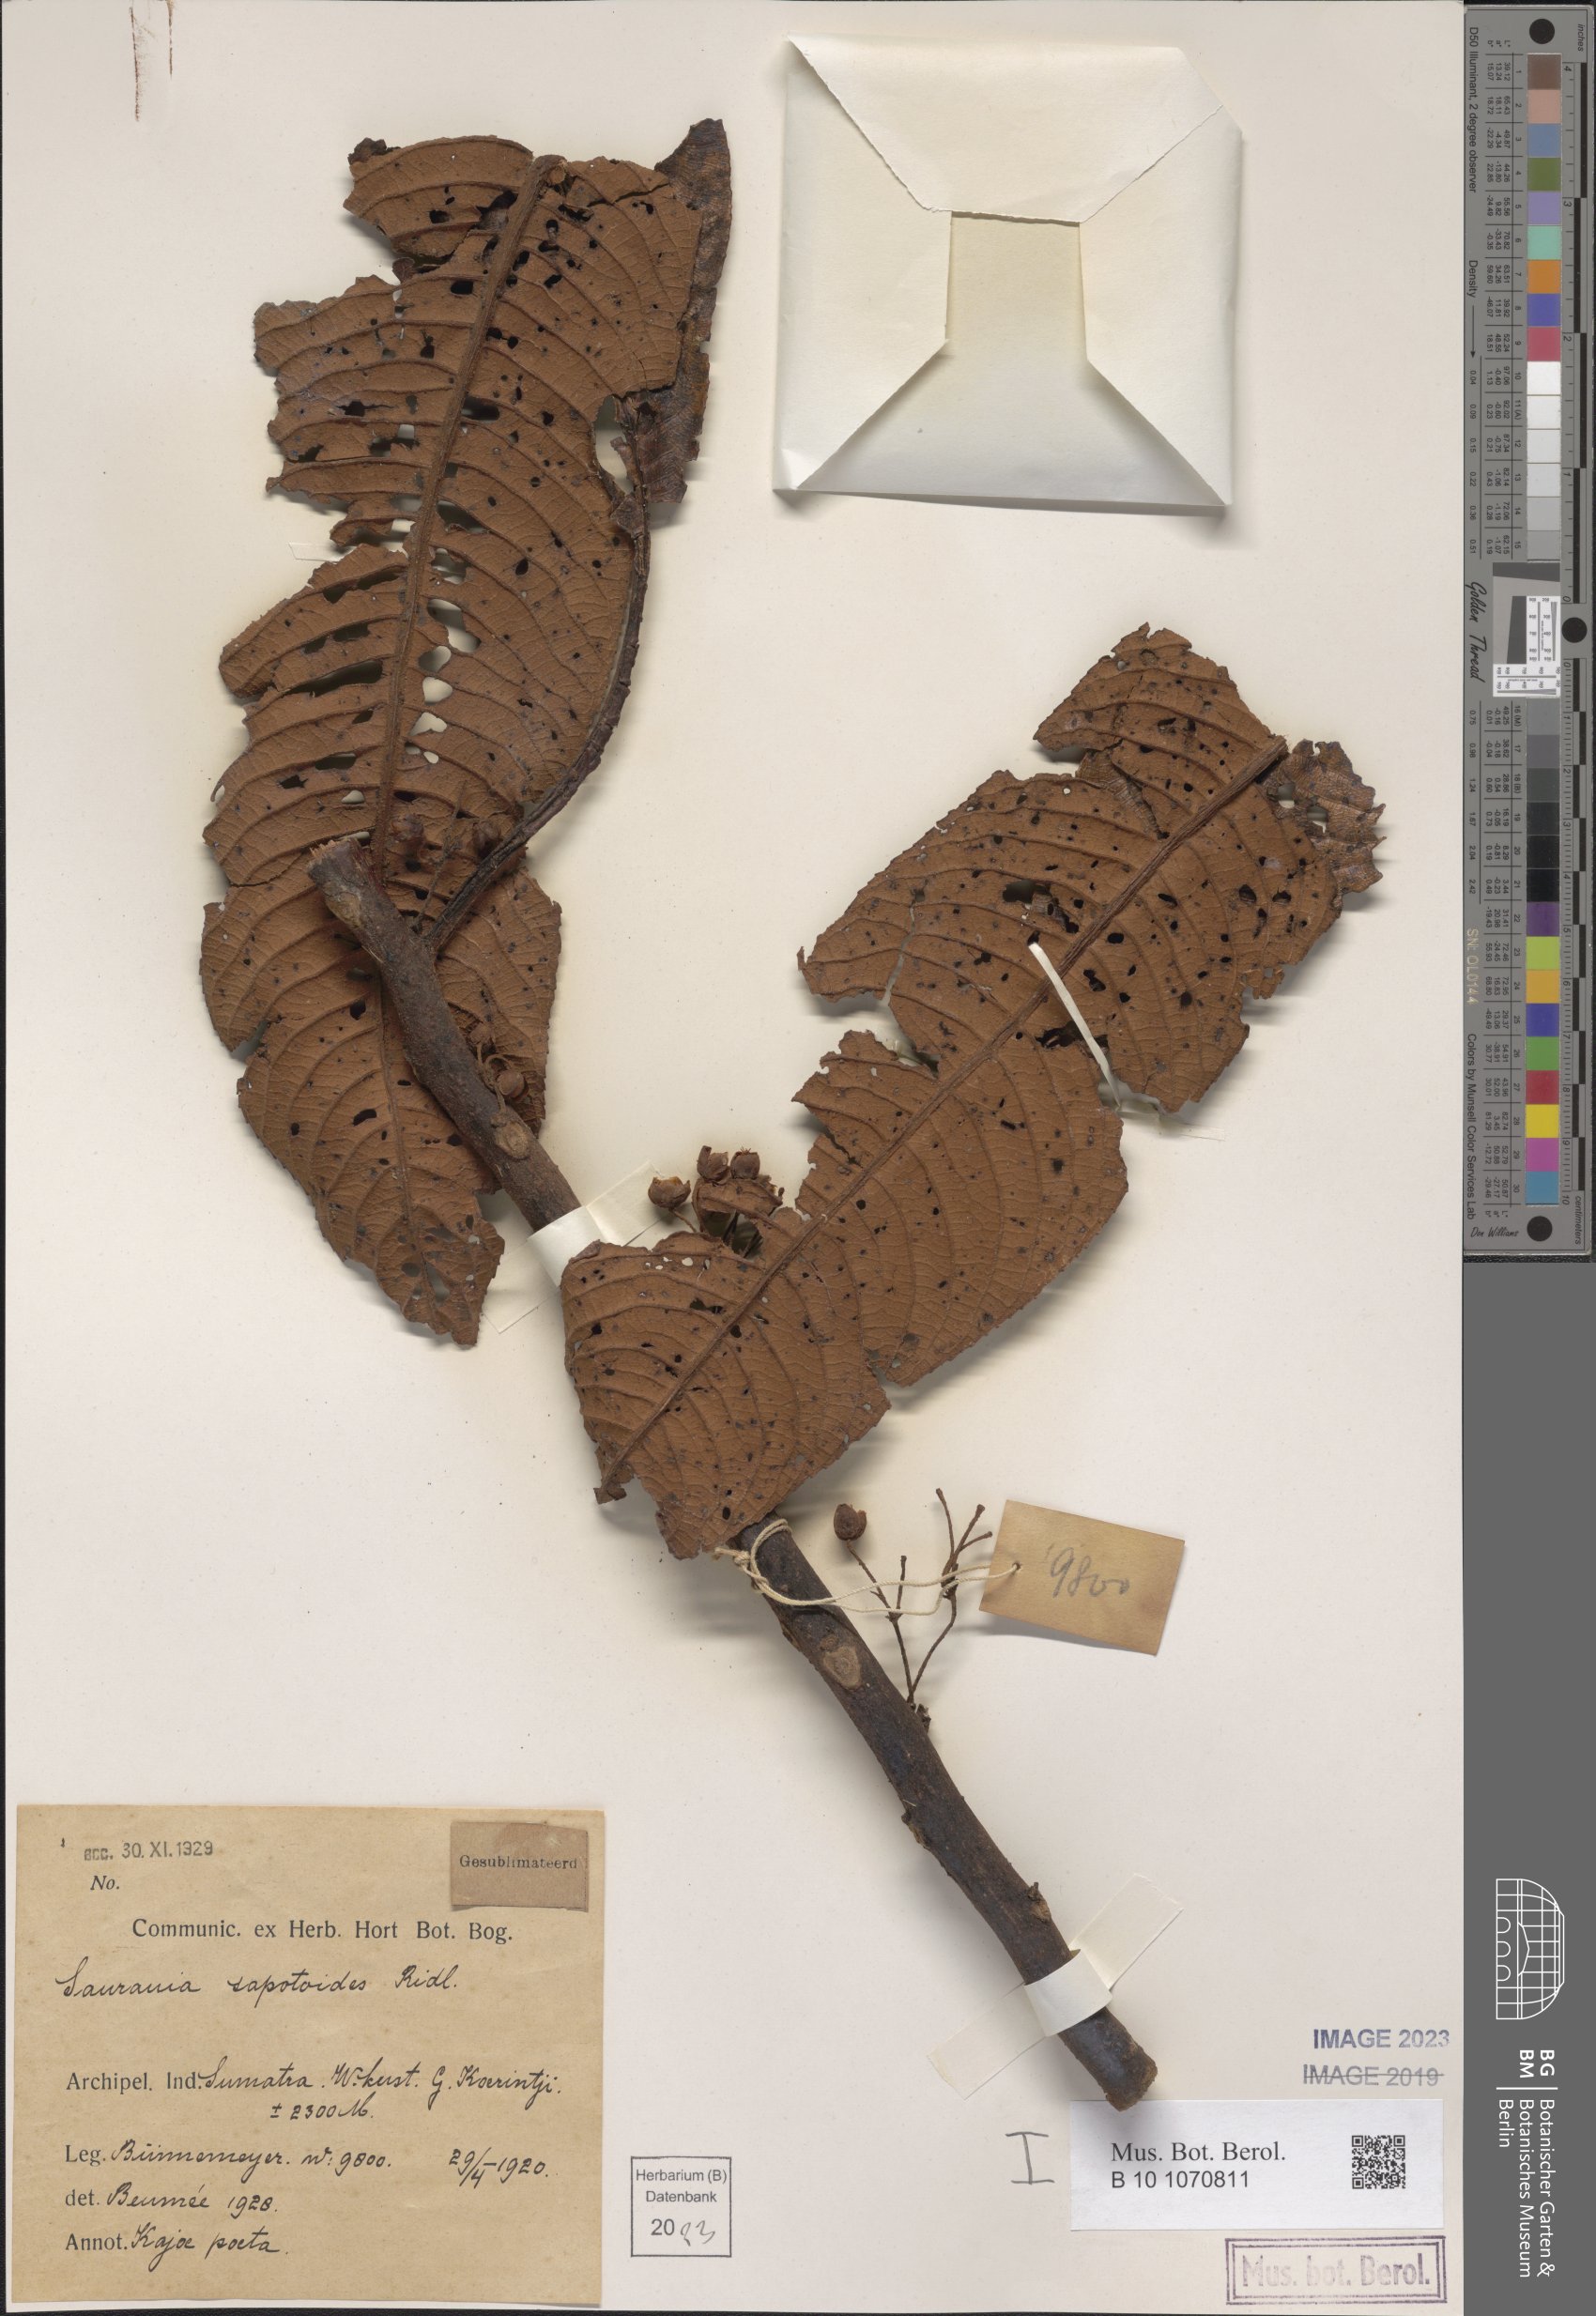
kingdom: Plantae
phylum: Tracheophyta
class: Magnoliopsida
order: Ericales
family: Actinidiaceae
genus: Saurauia
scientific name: Saurauia sapotoides
